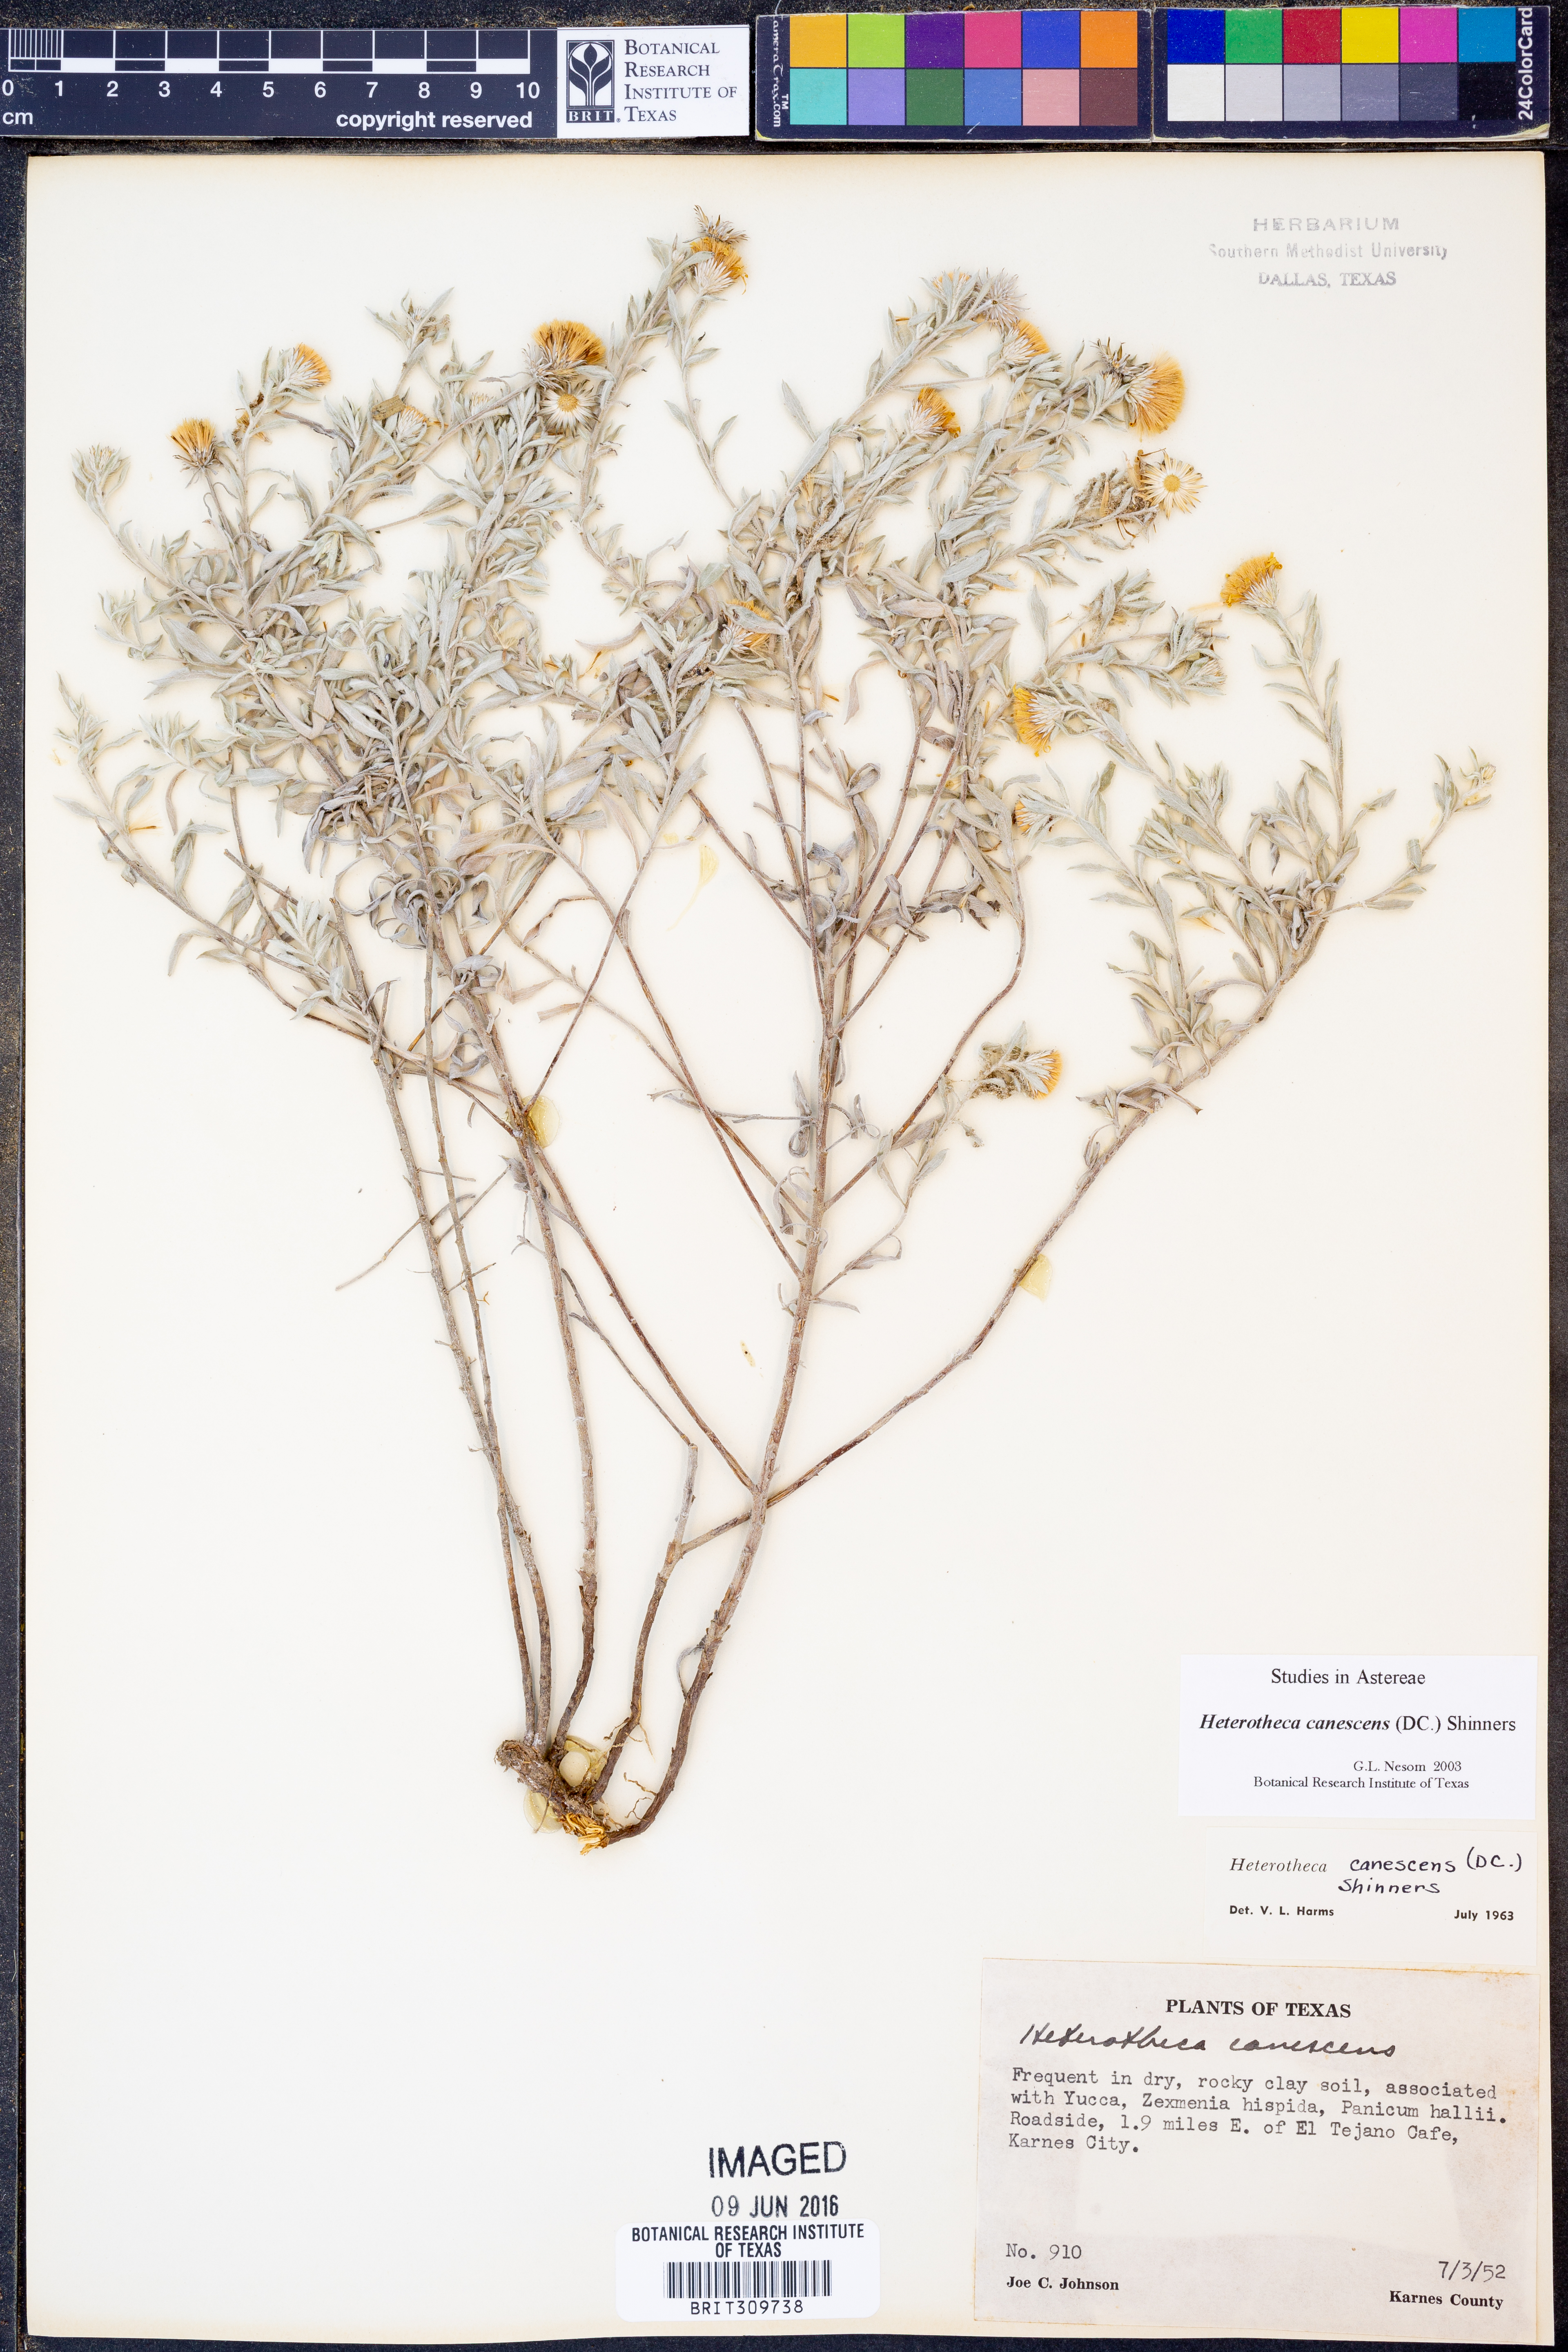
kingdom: Plantae
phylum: Tracheophyta
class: Magnoliopsida
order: Asterales
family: Asteraceae
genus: Heterotheca
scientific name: Heterotheca canescens
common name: Hoary golden-aster
